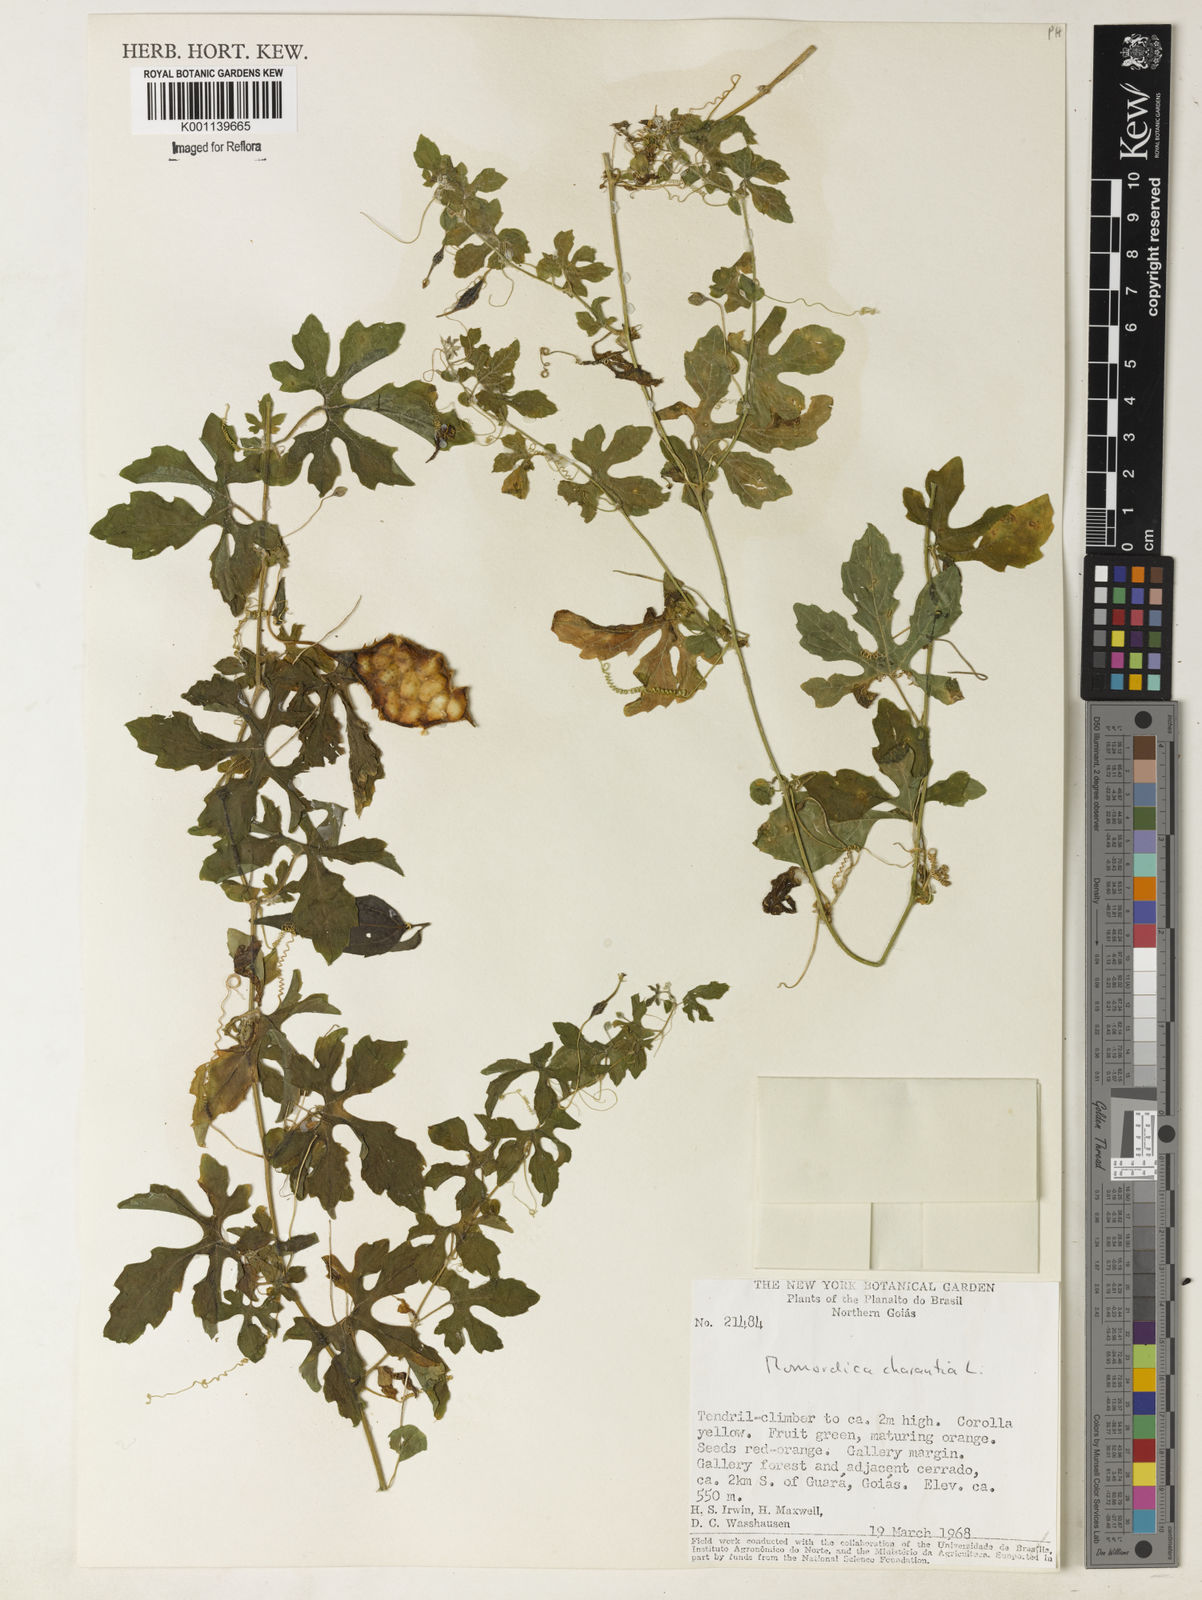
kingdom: Plantae
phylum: Tracheophyta
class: Magnoliopsida
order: Cucurbitales
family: Cucurbitaceae
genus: Momordica
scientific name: Momordica charantia
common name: Balsampear
